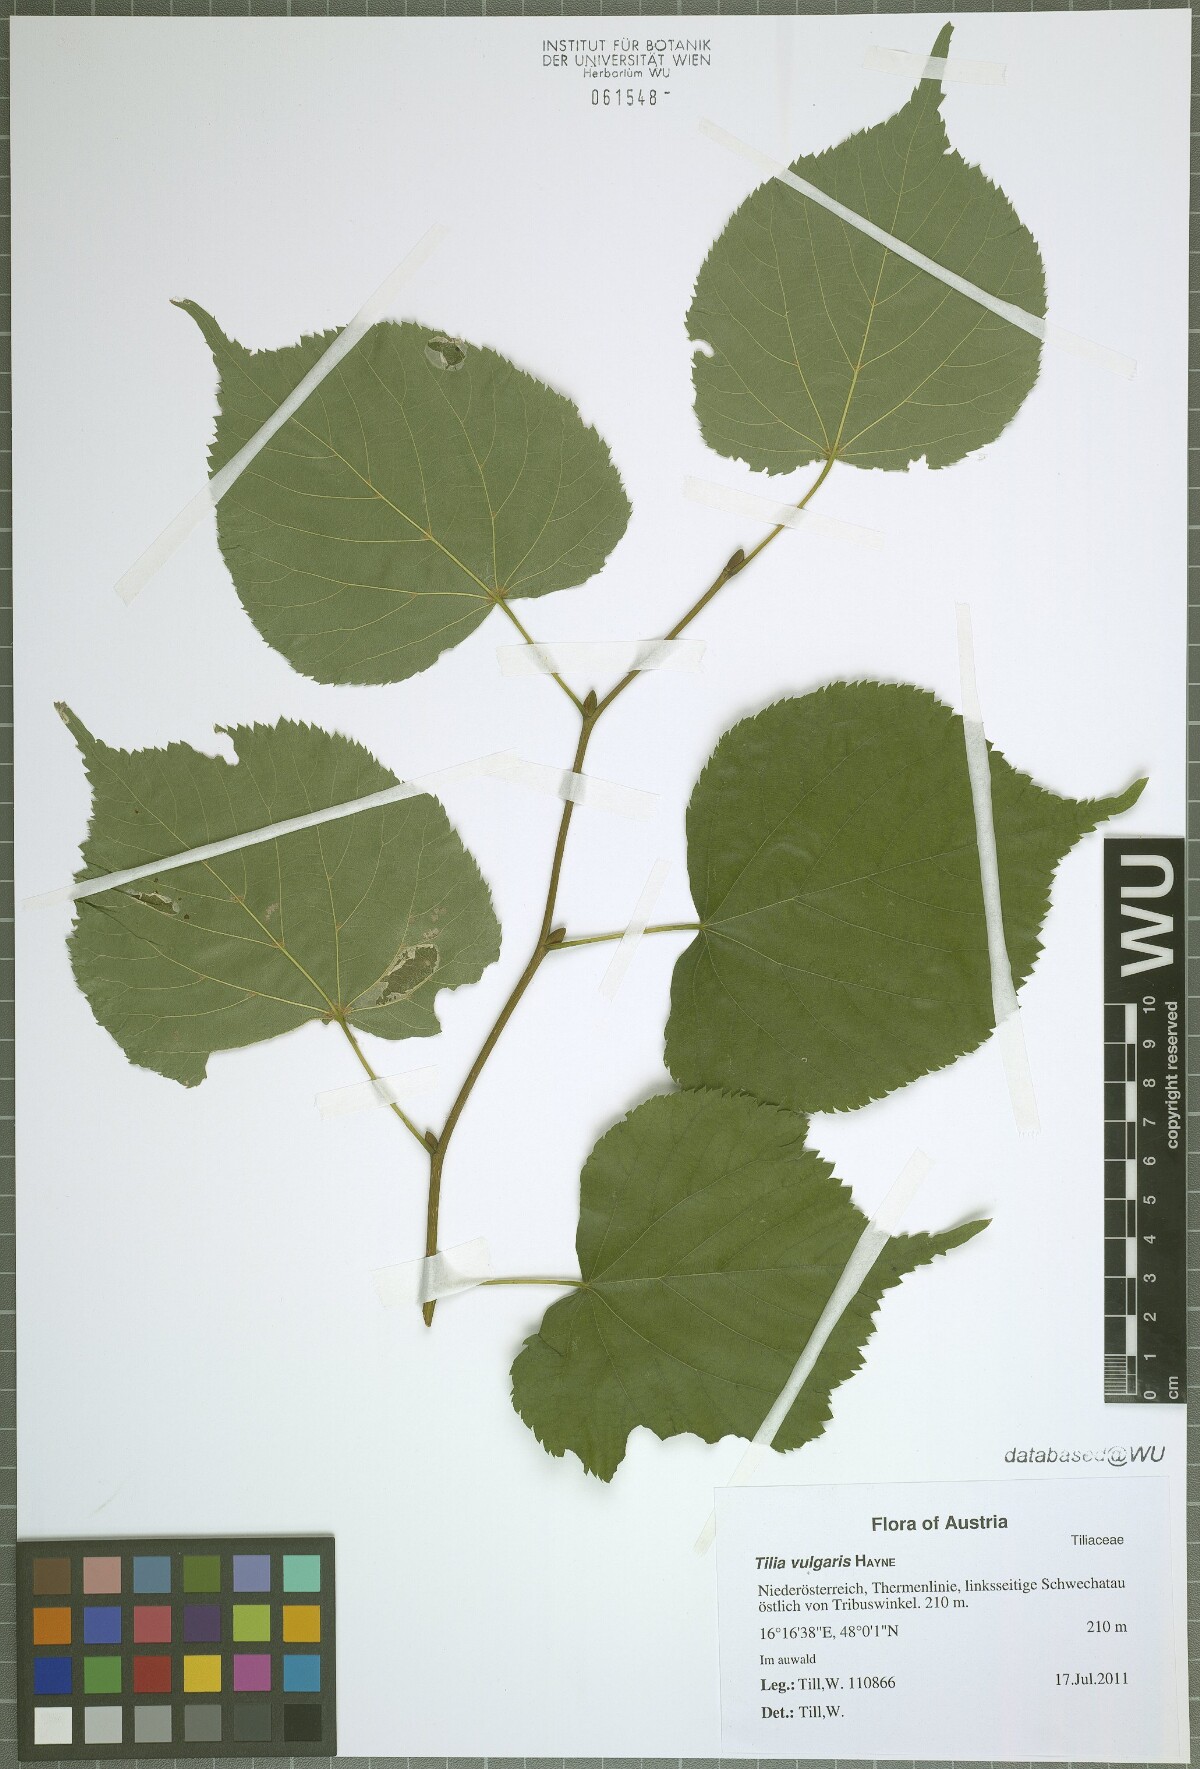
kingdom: Plantae
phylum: Tracheophyta
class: Magnoliopsida
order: Malvales
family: Malvaceae
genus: Tilia
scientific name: Tilia europaea
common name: European linden
